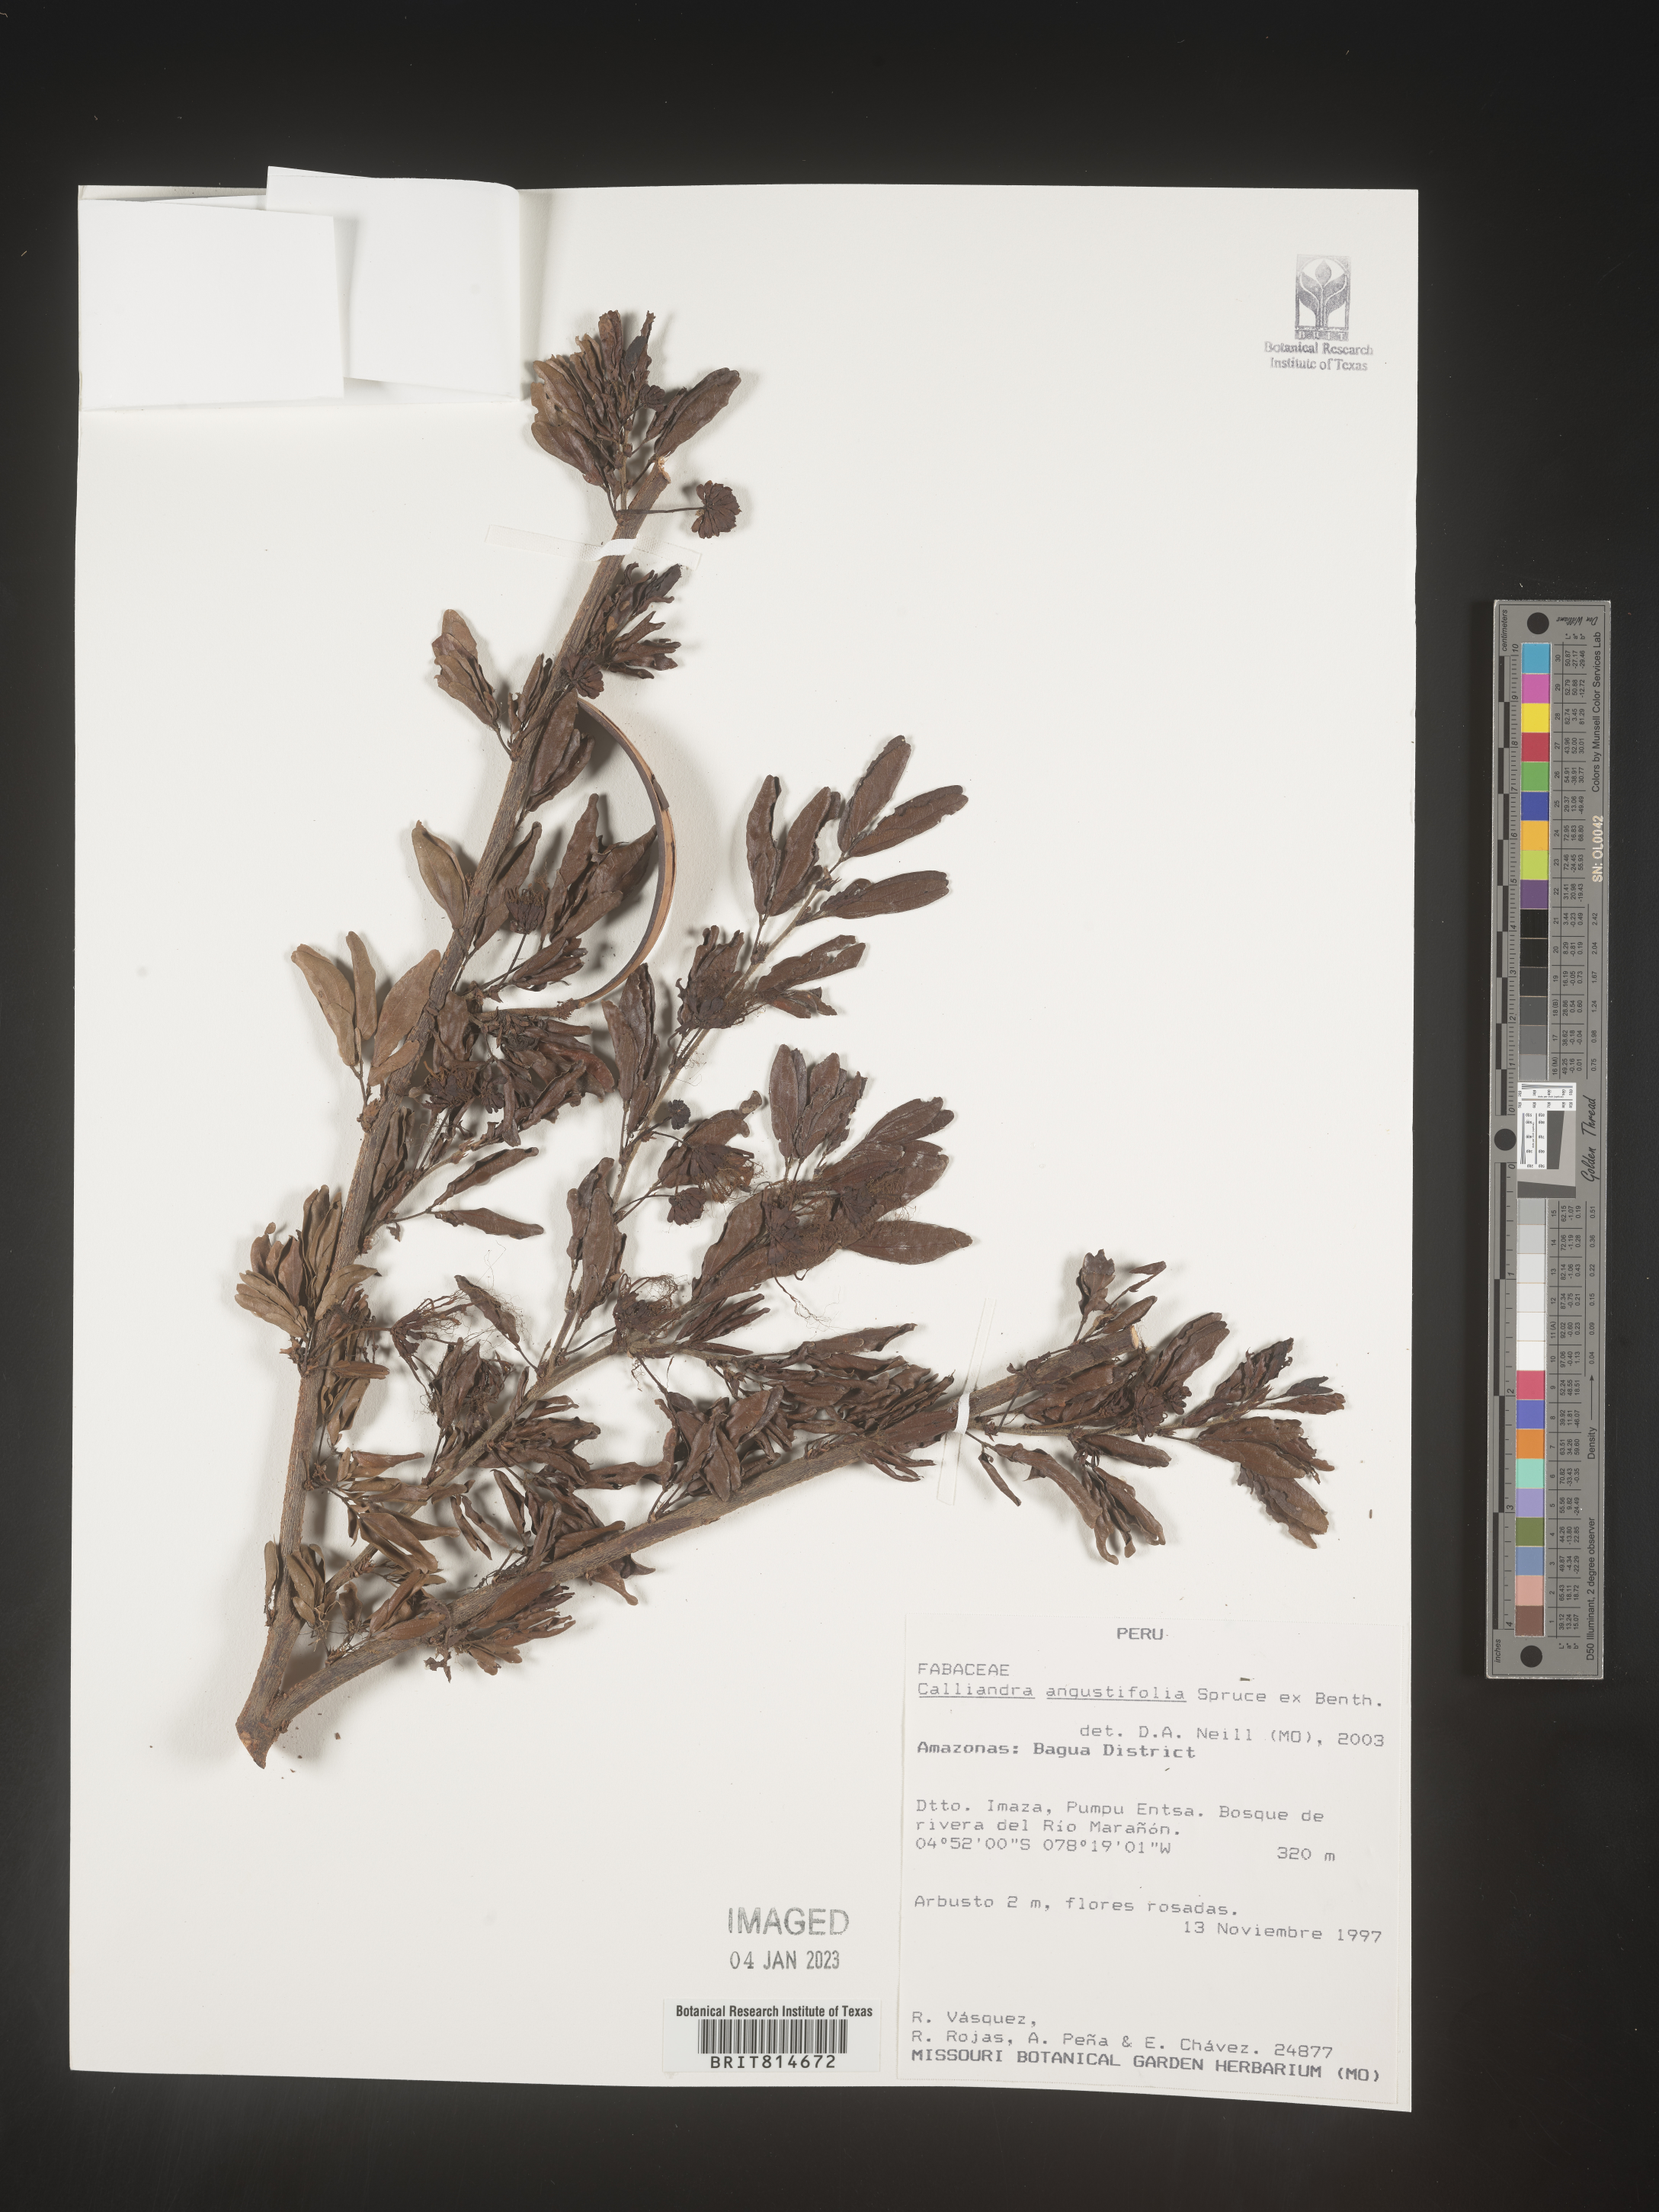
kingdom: Plantae
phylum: Tracheophyta
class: Magnoliopsida
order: Fabales
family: Fabaceae
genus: Calliandra
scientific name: Calliandra
